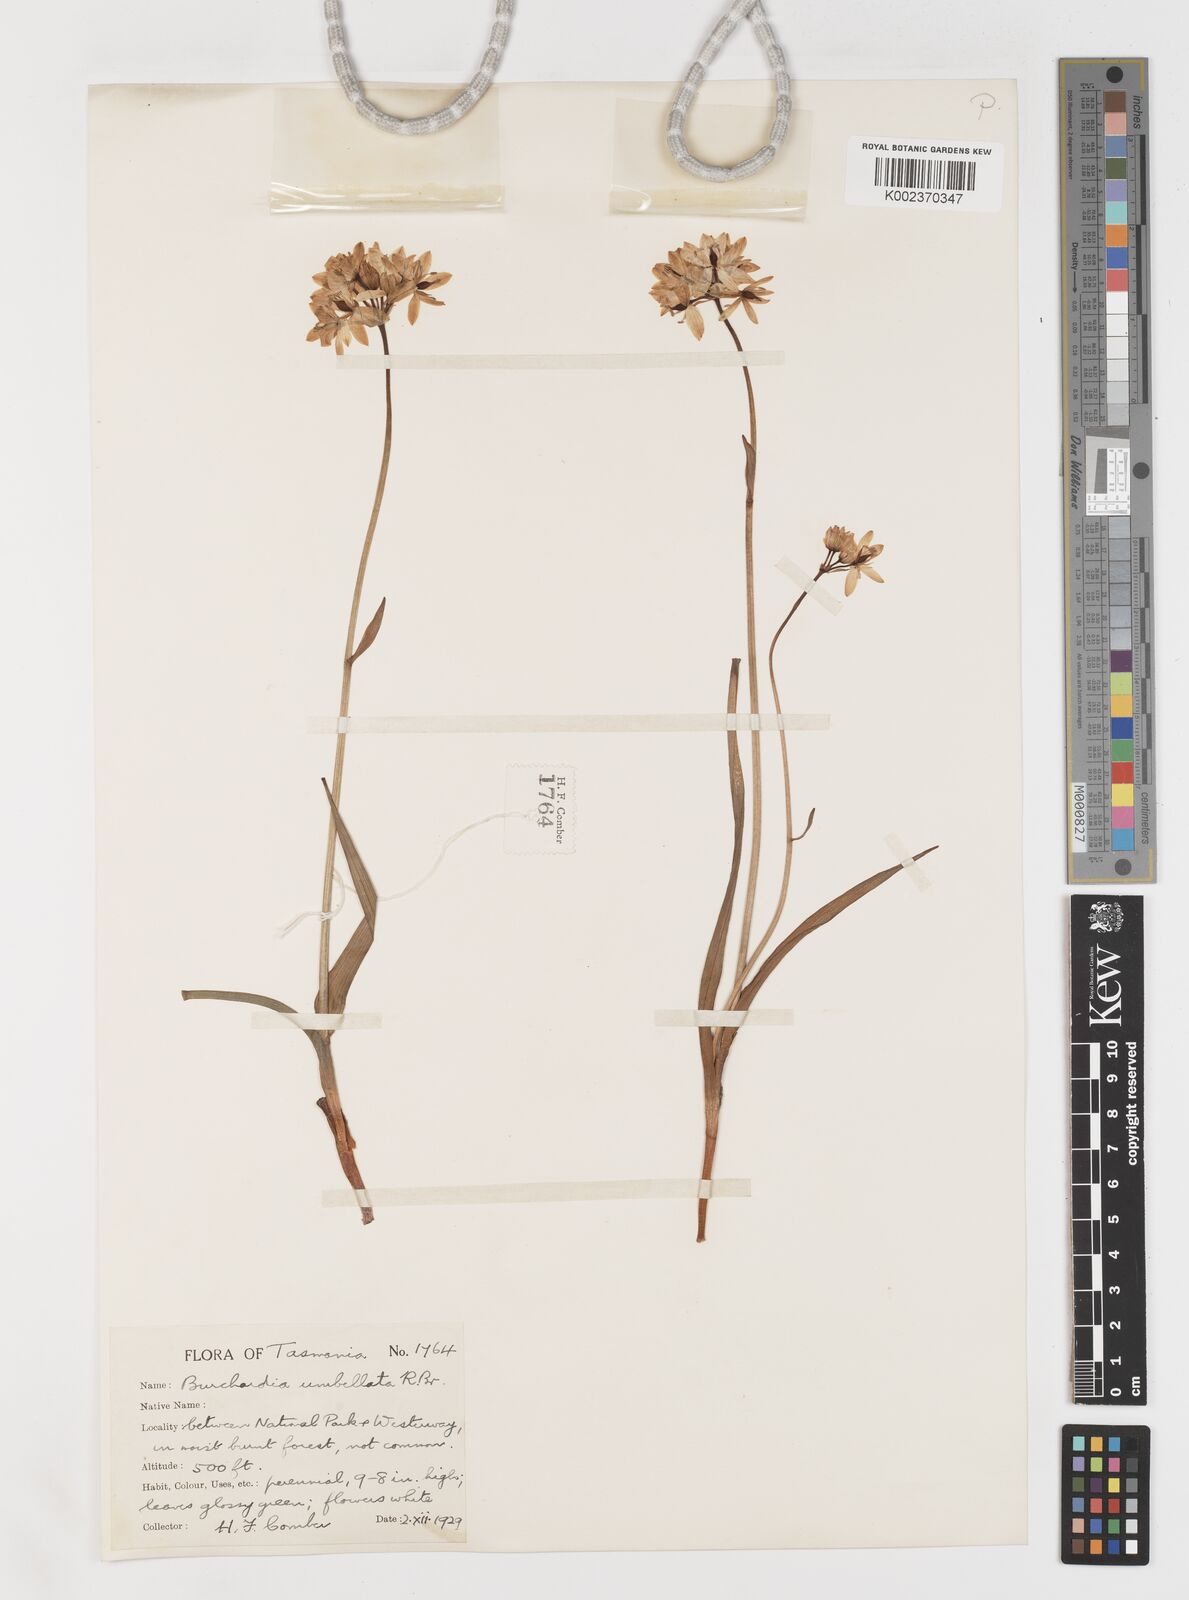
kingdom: Plantae
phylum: Tracheophyta
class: Liliopsida
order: Liliales
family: Colchicaceae
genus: Burchardia
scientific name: Burchardia umbellata
